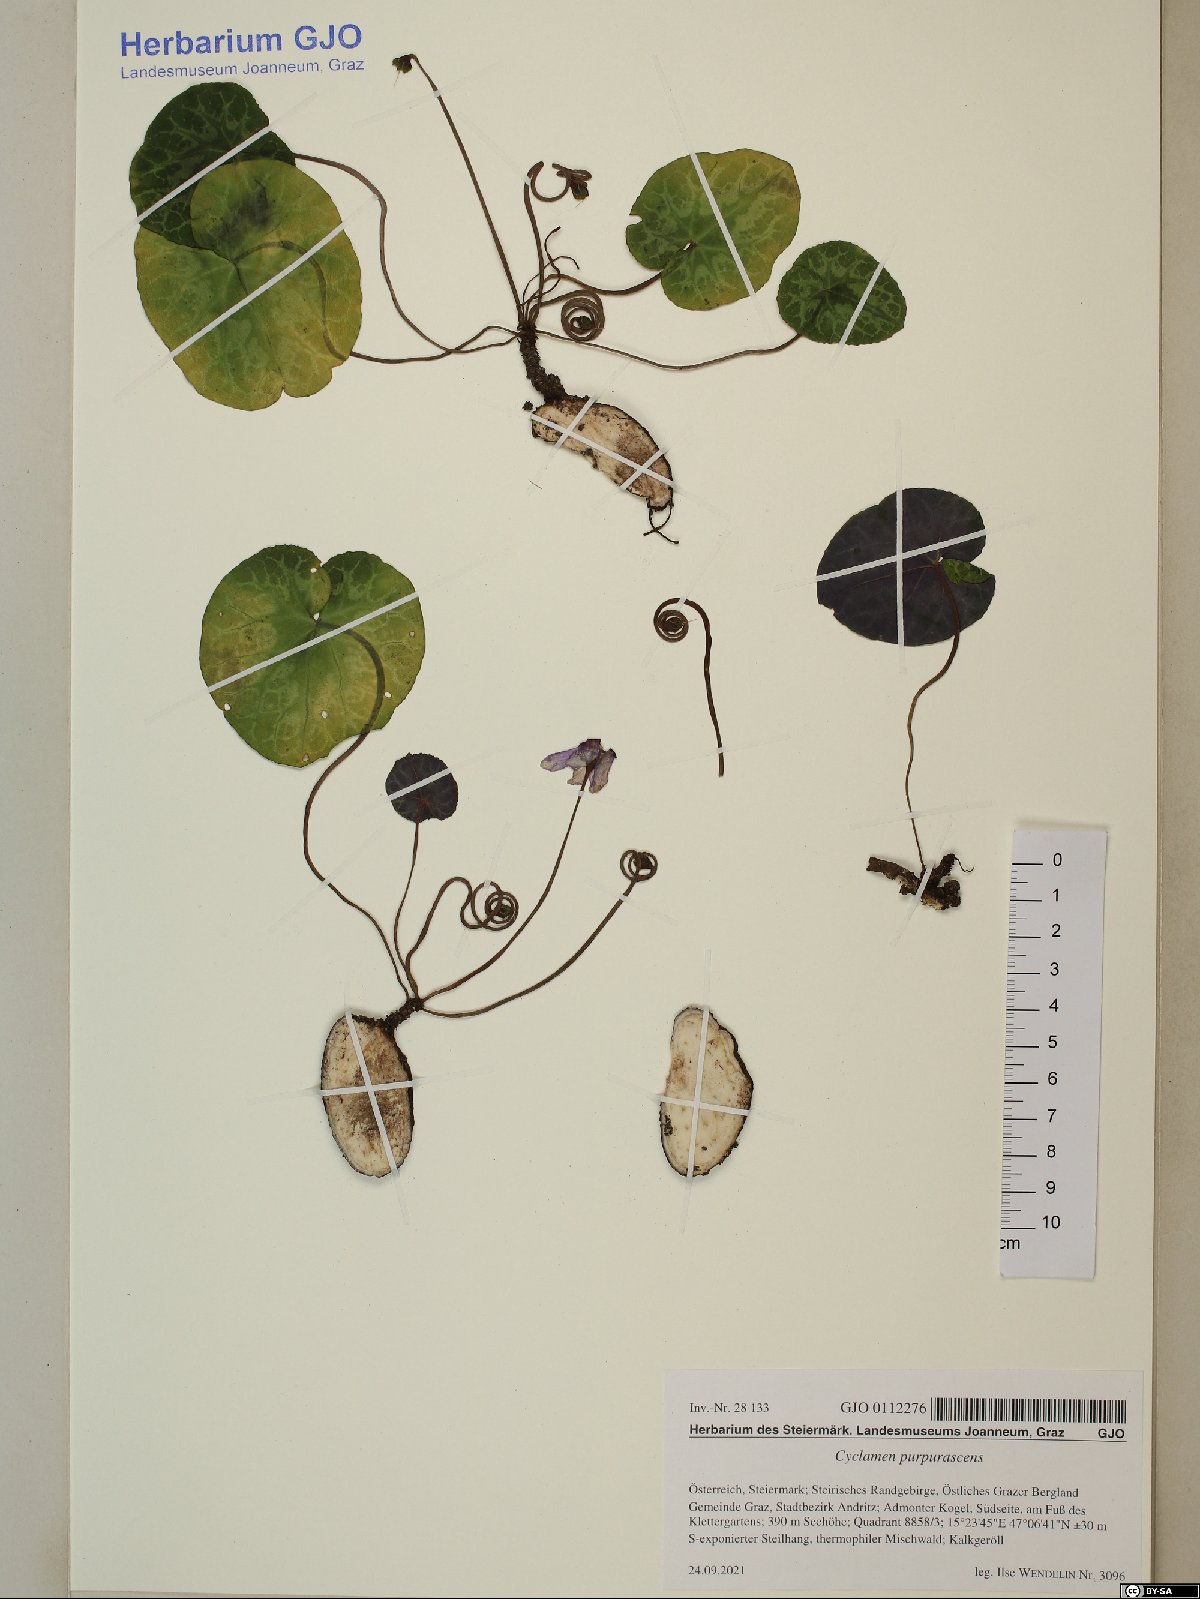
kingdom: Plantae
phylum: Tracheophyta
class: Magnoliopsida
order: Ericales
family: Primulaceae
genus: Cyclamen
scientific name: Cyclamen purpurascens
